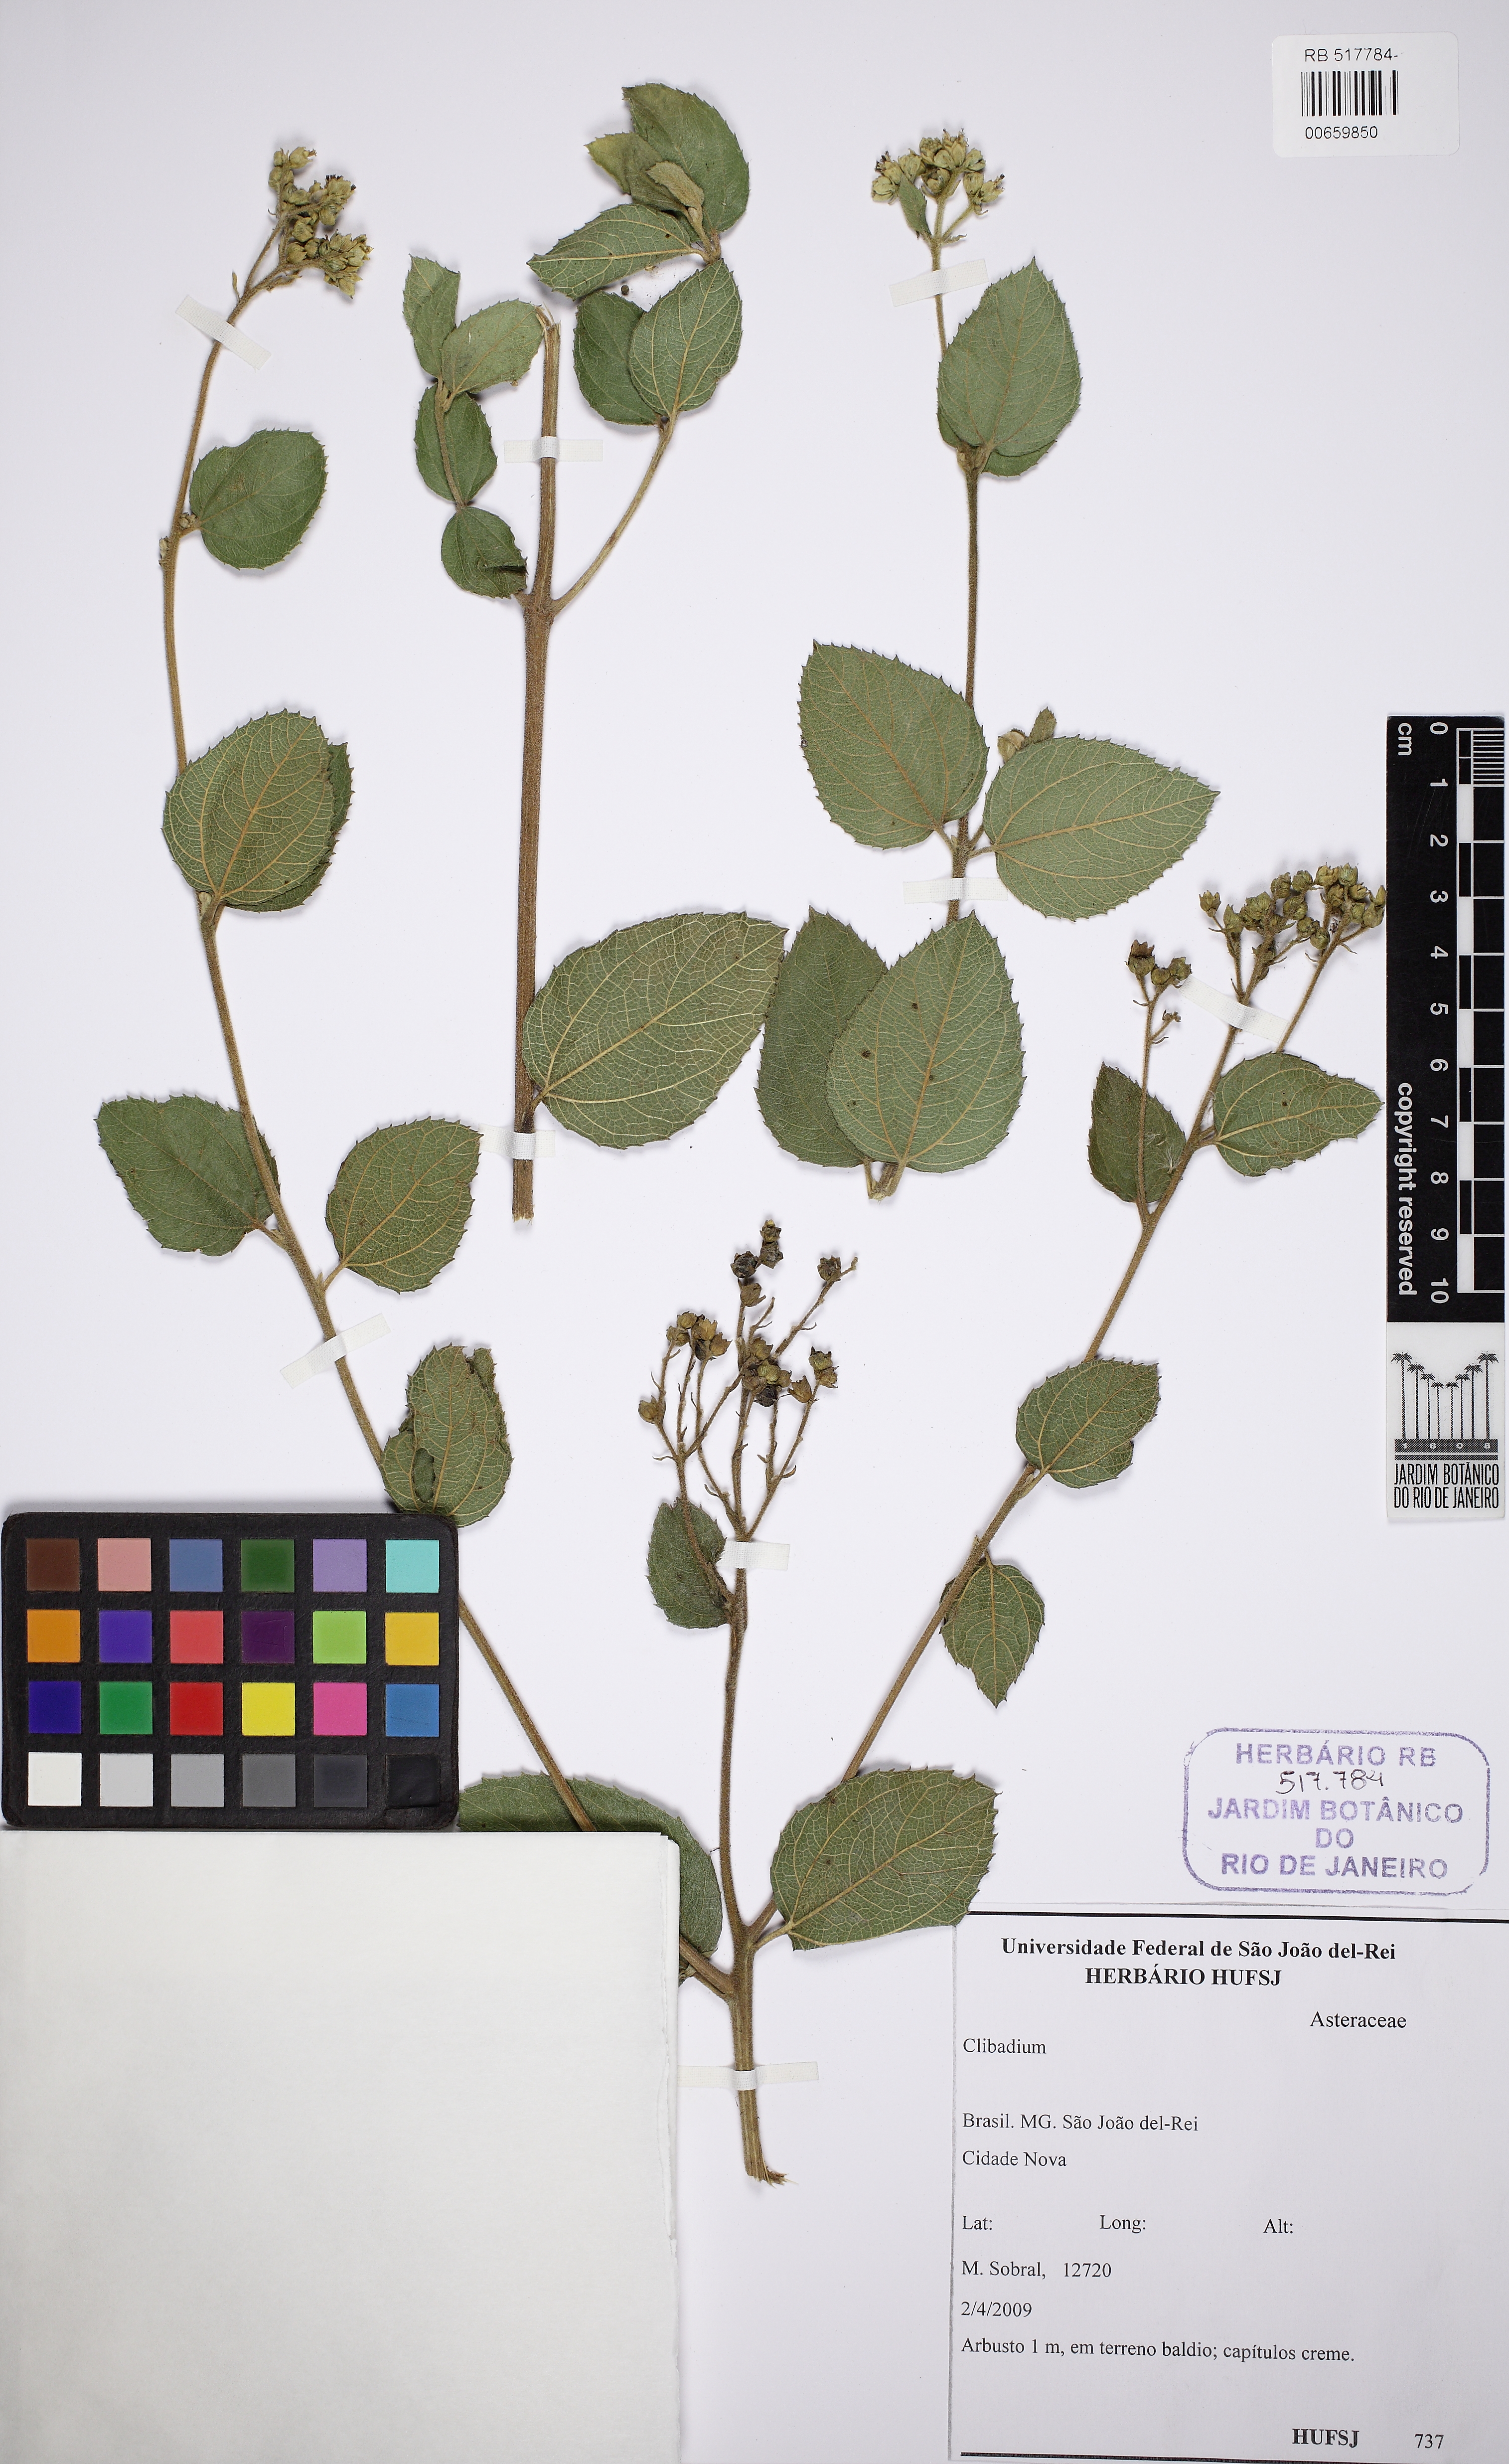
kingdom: Plantae
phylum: Tracheophyta
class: Magnoliopsida
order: Asterales
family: Asteraceae
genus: Clibadium
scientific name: Clibadium
